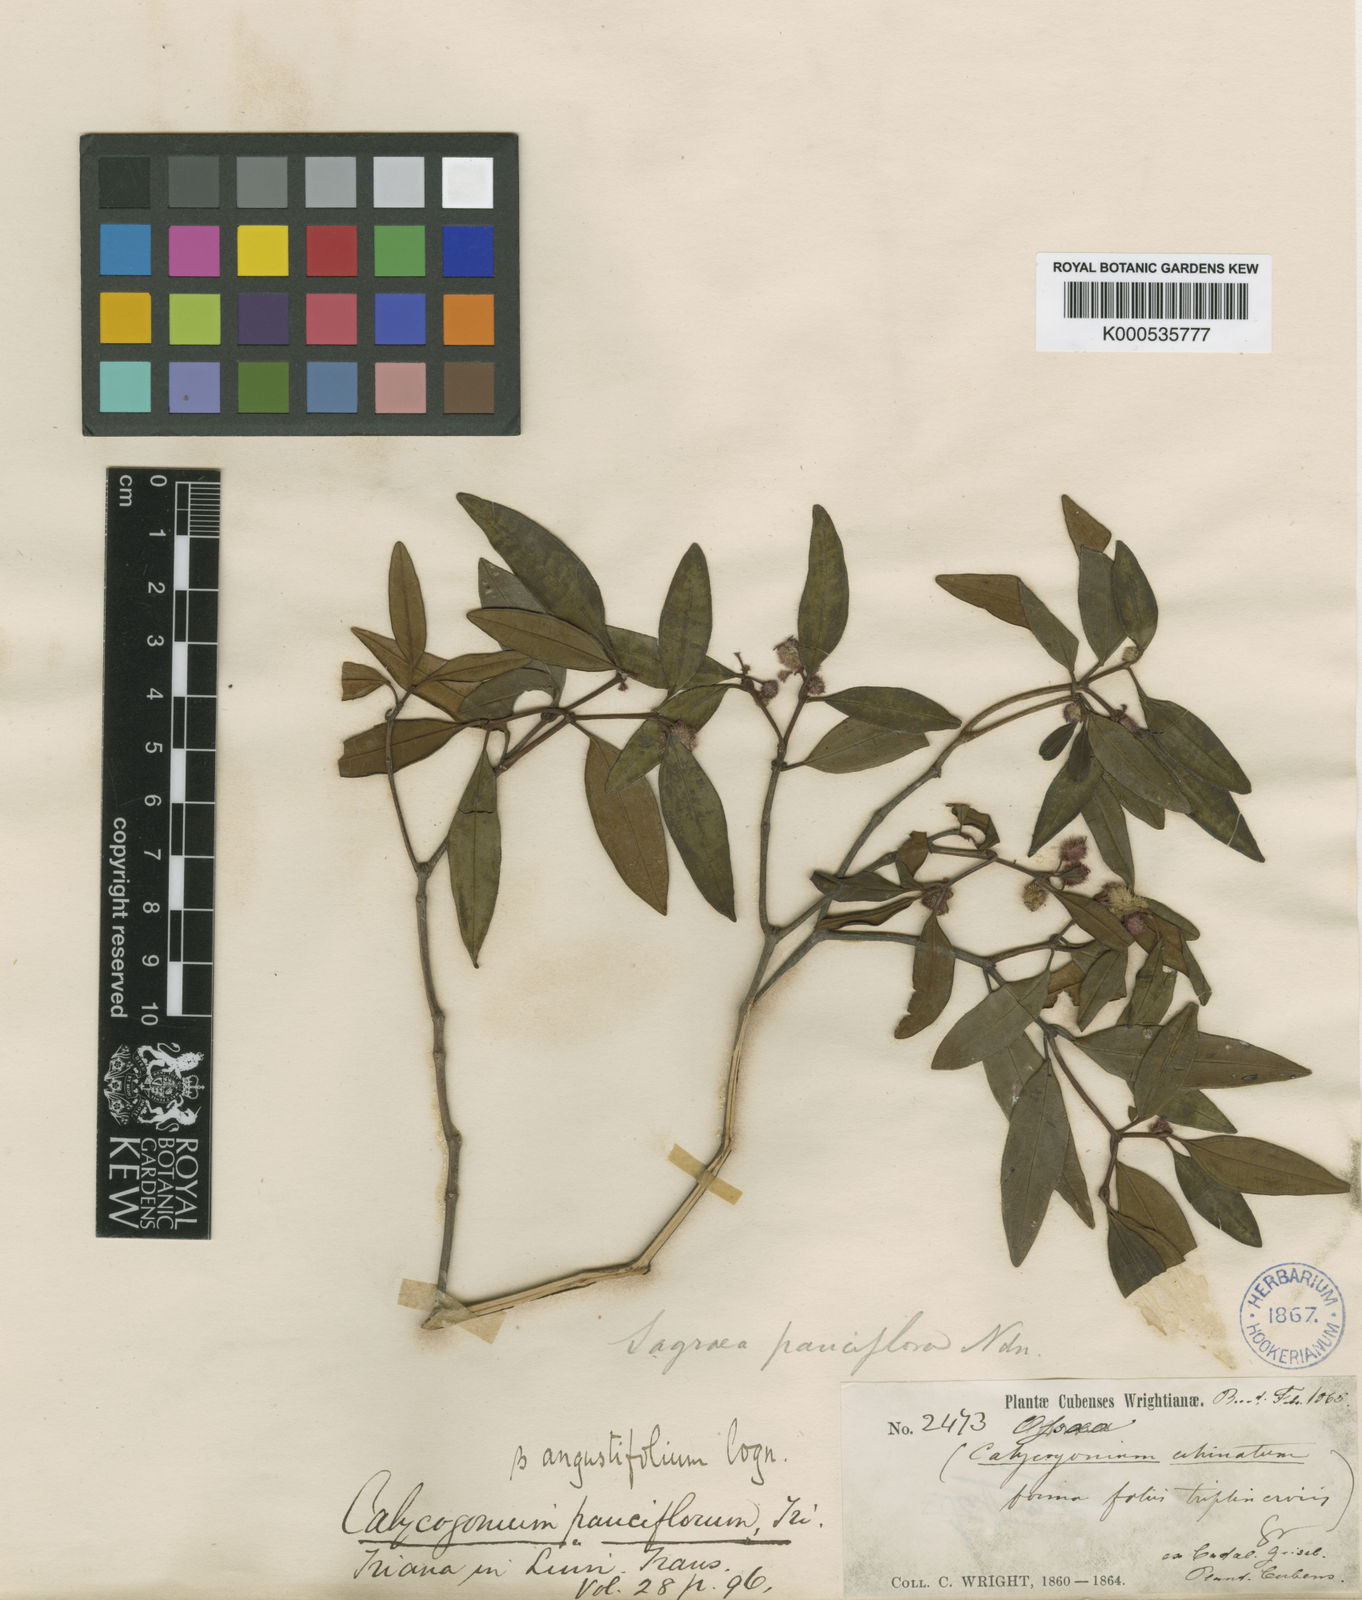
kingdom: Plantae
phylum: Tracheophyta
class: Magnoliopsida
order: Myrtales
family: Melastomataceae
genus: Miconia
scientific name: Miconia echinata
